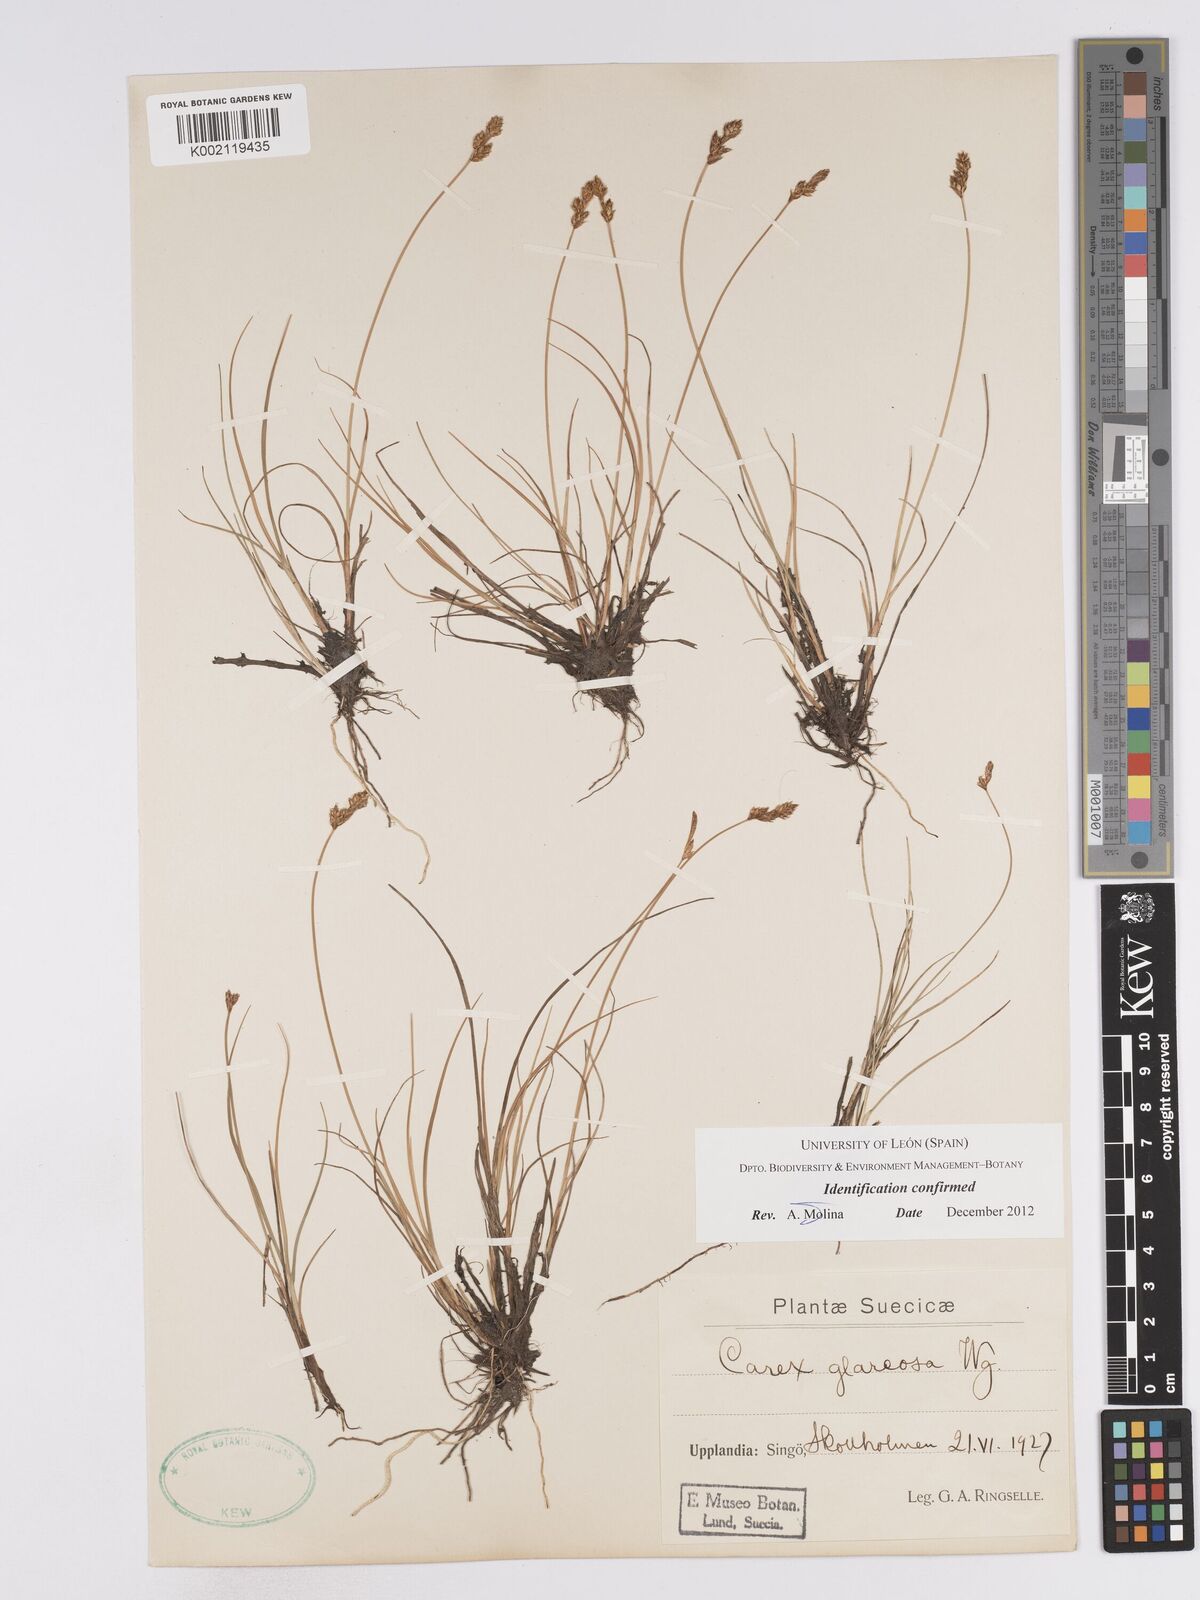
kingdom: Plantae
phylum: Tracheophyta
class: Liliopsida
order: Poales
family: Cyperaceae
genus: Carex
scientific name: Carex glareosa
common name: Clustered sedge
